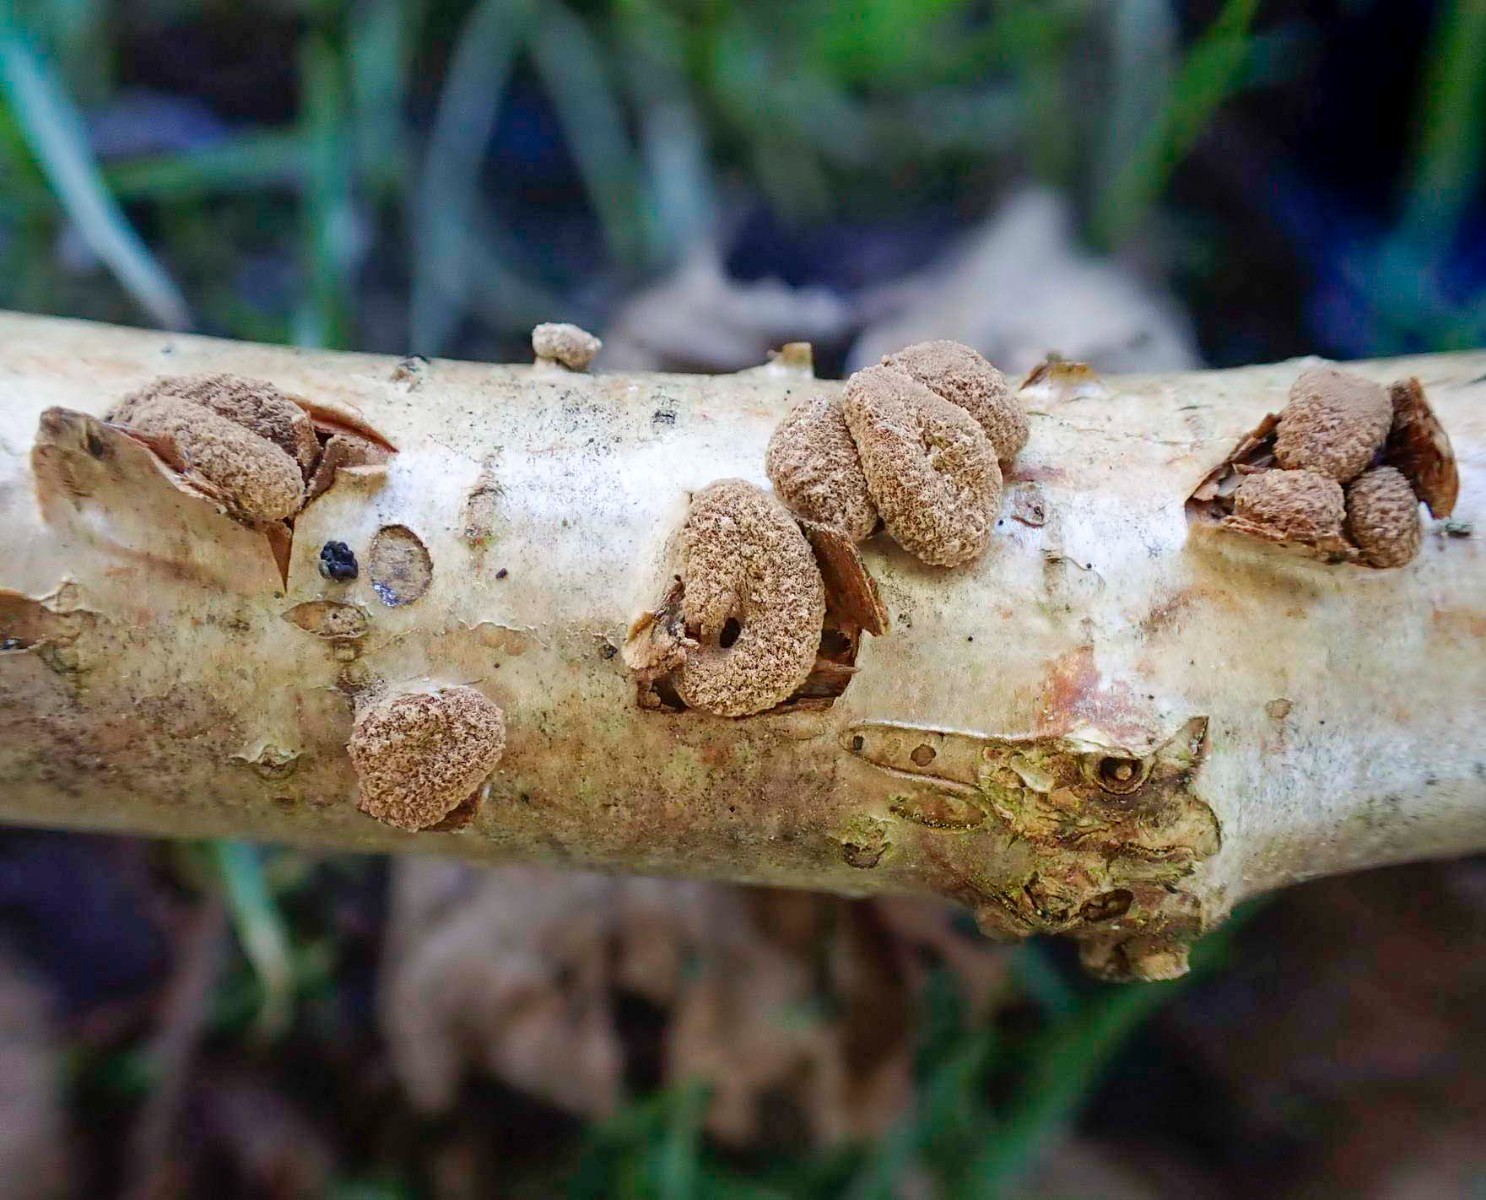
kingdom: Fungi
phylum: Ascomycota
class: Leotiomycetes
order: Helotiales
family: Cenangiaceae
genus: Encoelia
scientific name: Encoelia furfuracea
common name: hassel-læderskive
